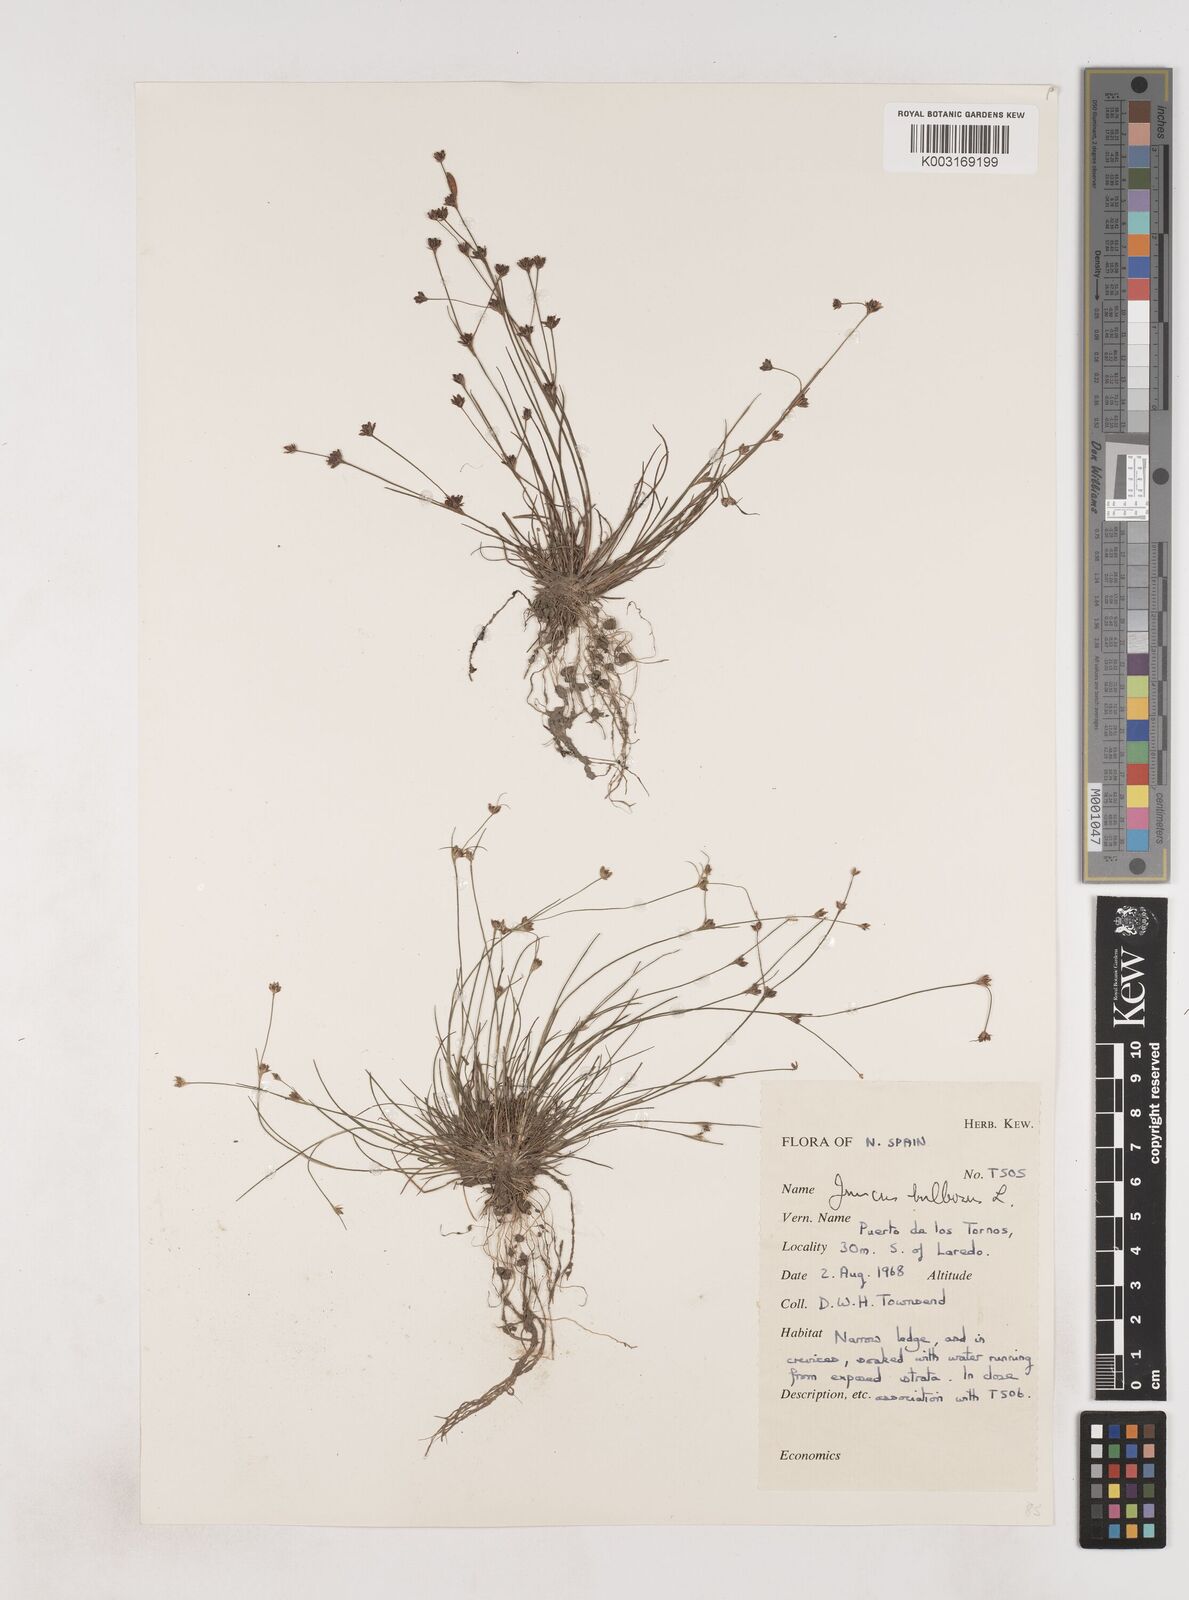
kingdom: Plantae
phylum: Tracheophyta
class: Liliopsida
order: Poales
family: Juncaceae
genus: Juncus
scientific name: Juncus bulbosus
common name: Bulbous rush
